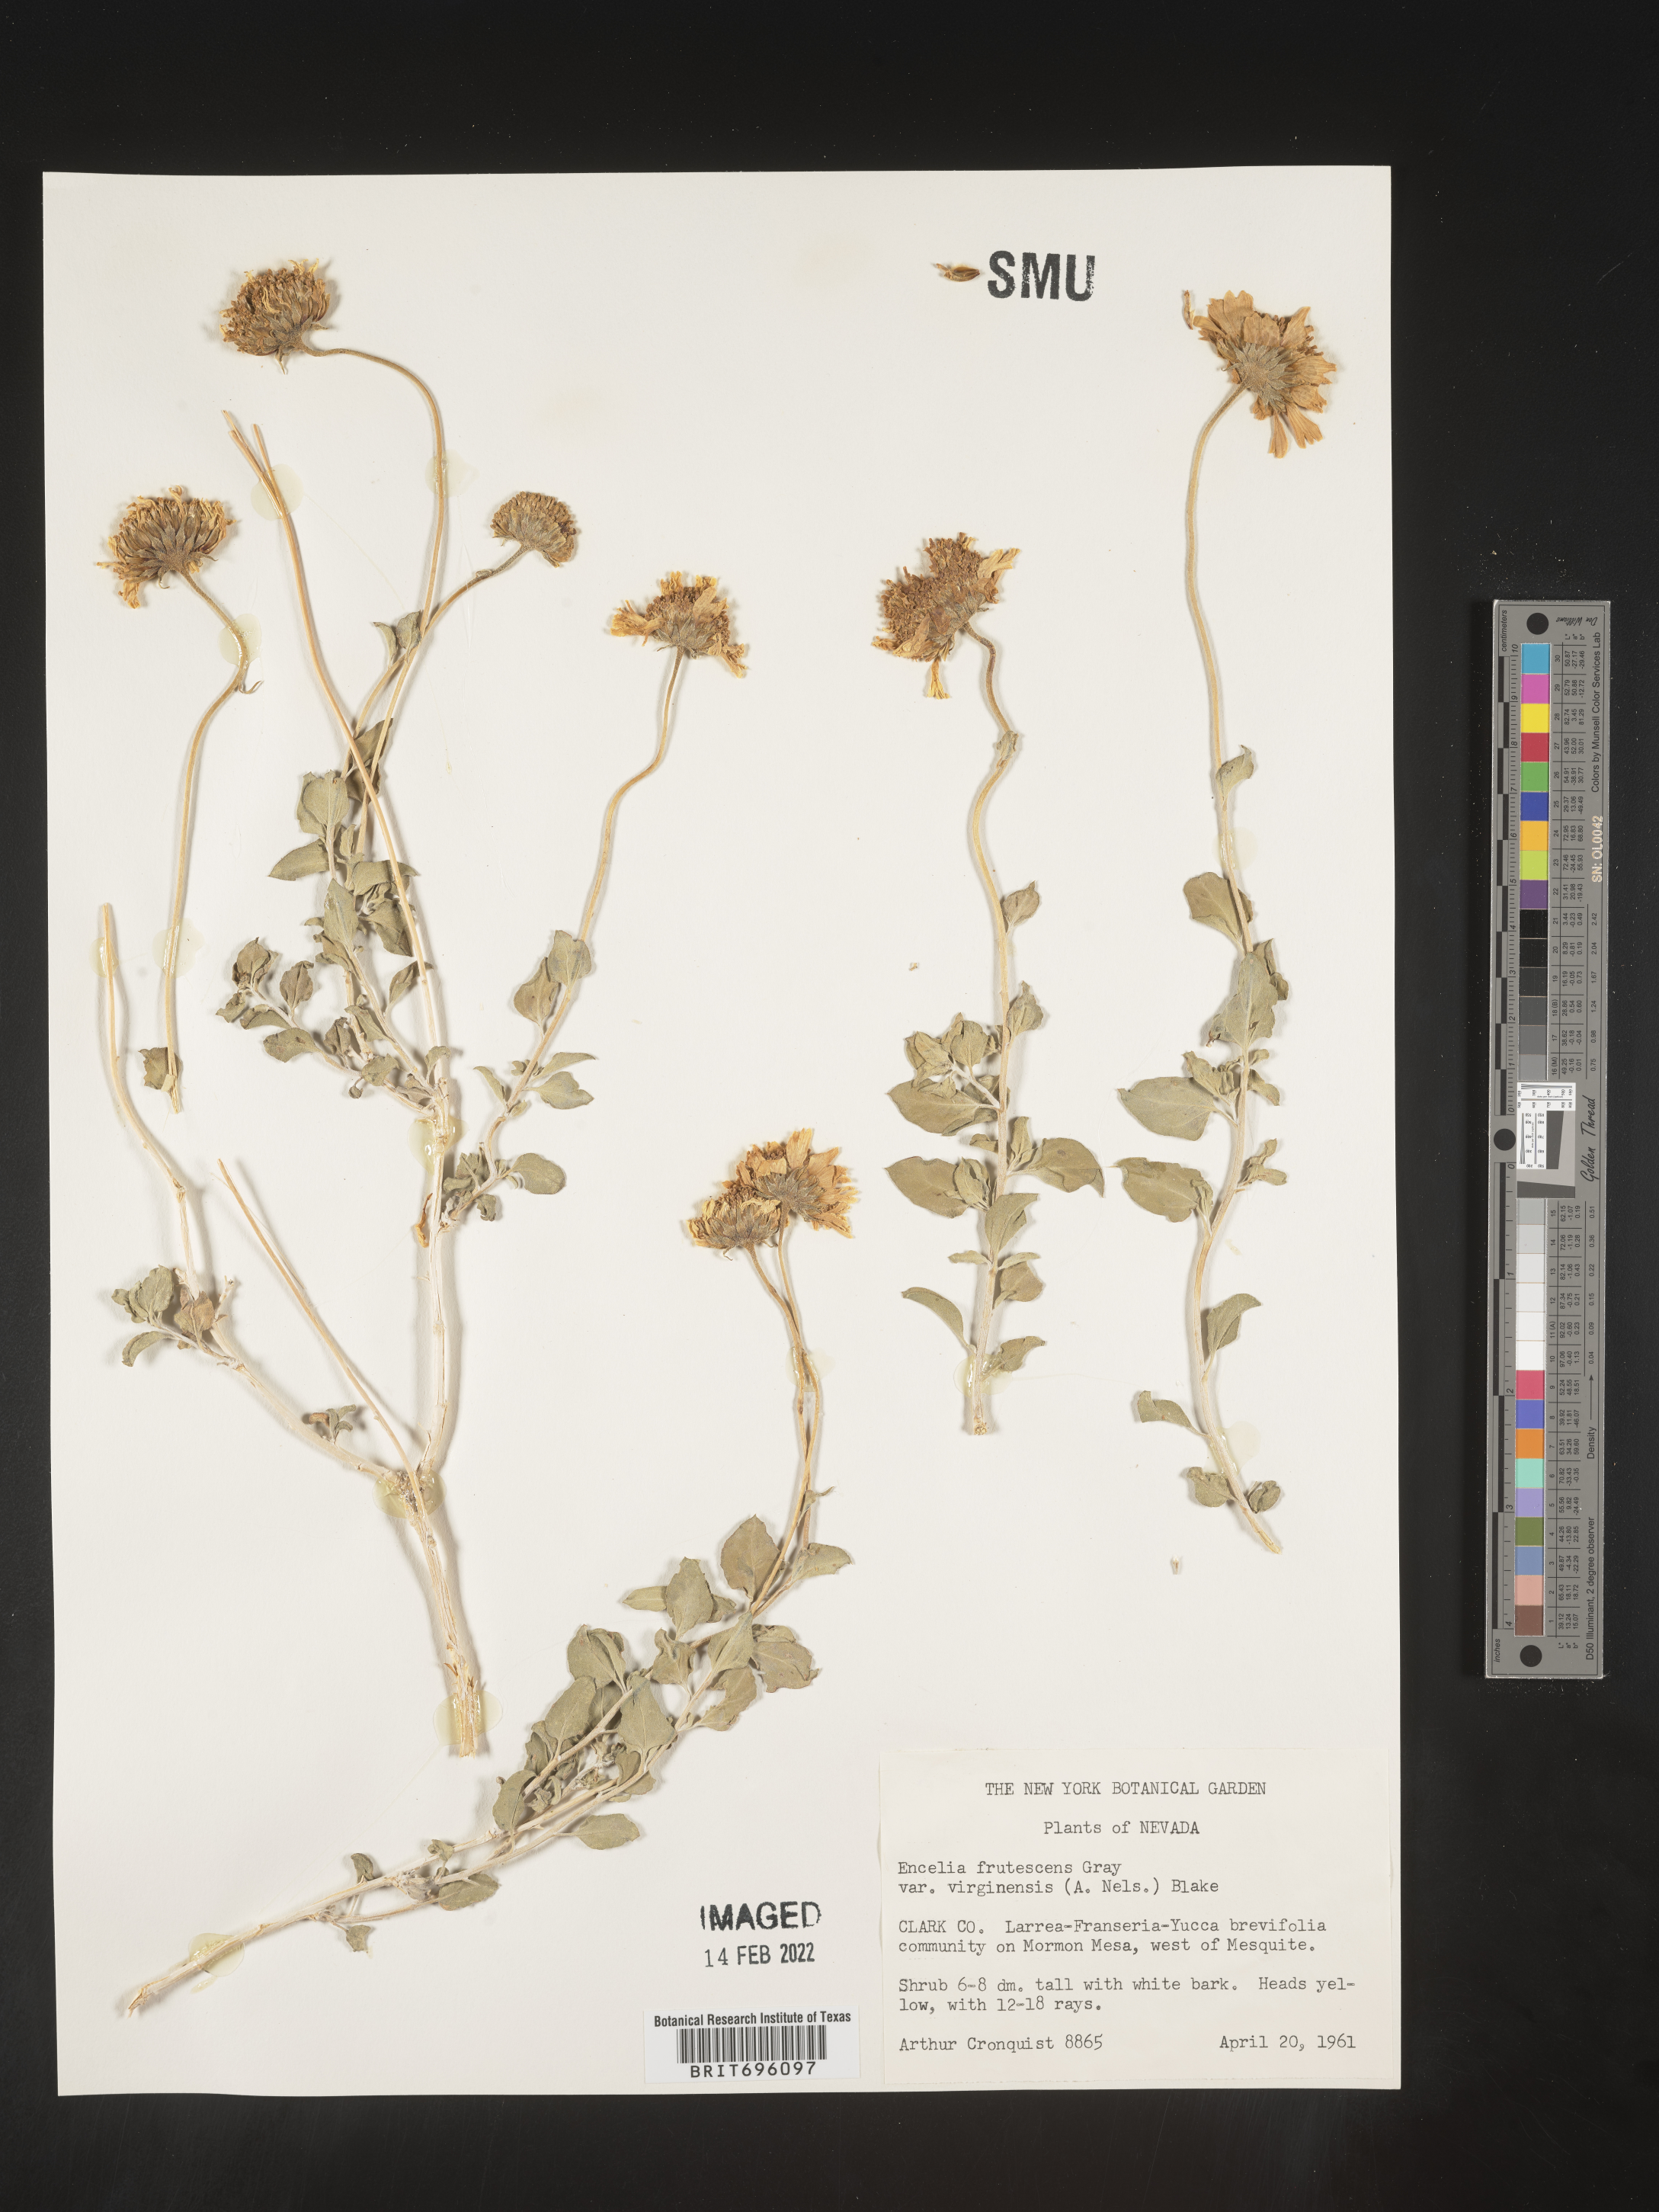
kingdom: Plantae
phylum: Tracheophyta
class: Magnoliopsida
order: Asterales
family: Asteraceae
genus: Encelia
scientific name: Encelia virginensis
